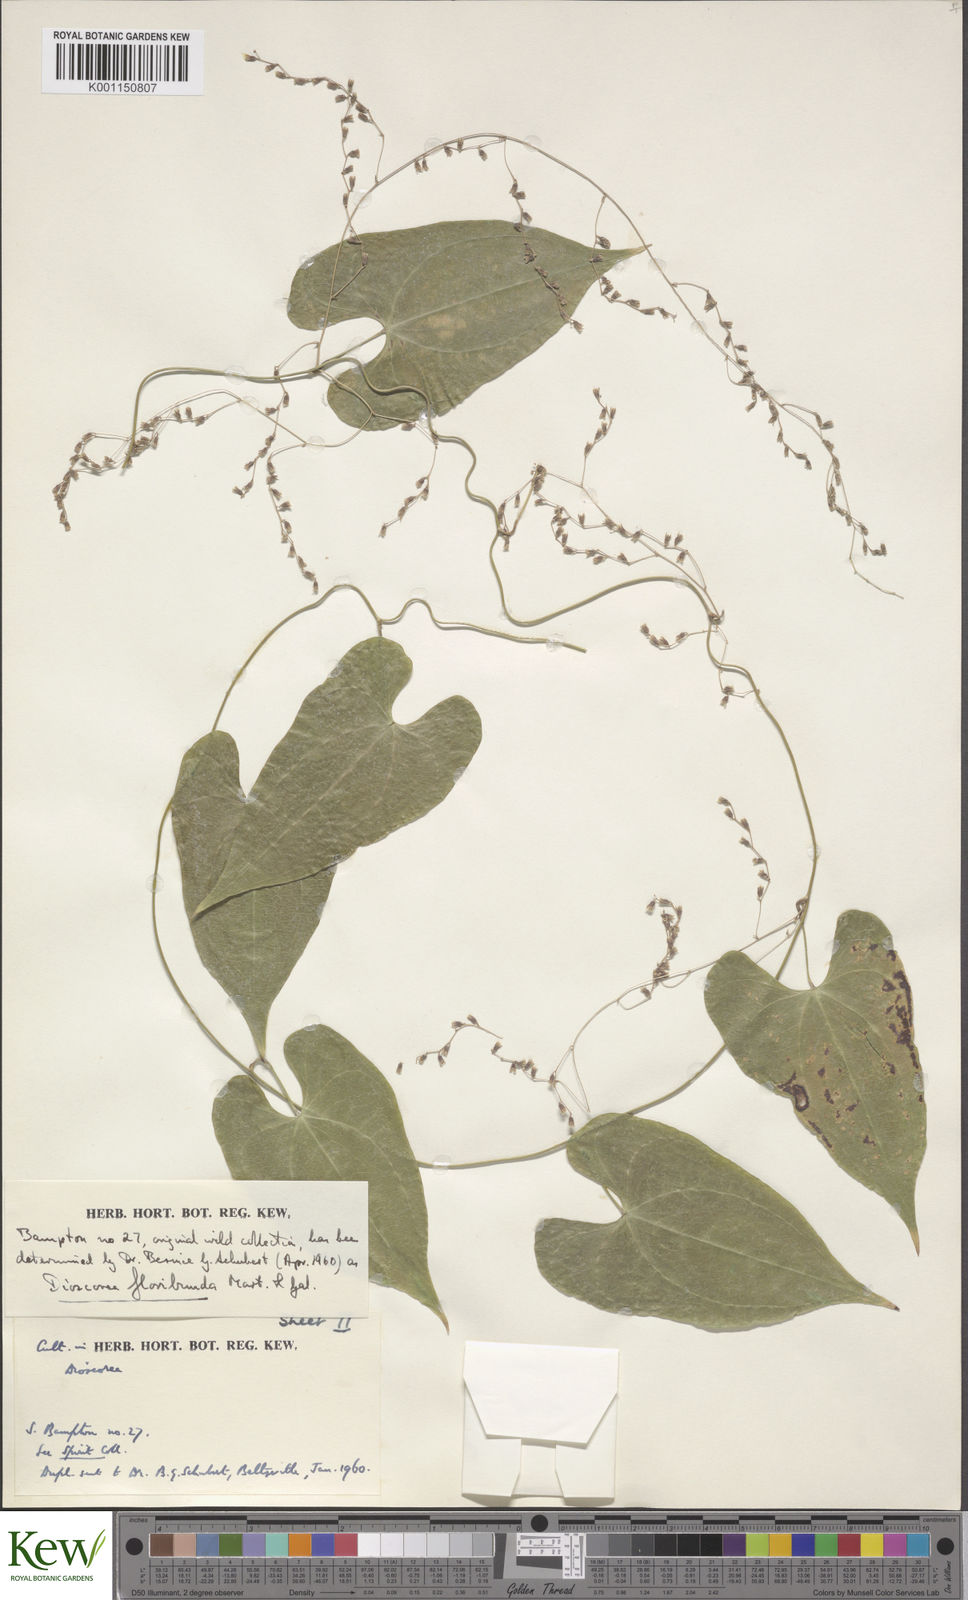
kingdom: Plantae
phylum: Tracheophyta
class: Liliopsida
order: Dioscoreales
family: Dioscoreaceae
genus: Dioscorea
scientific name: Dioscorea floribunda
